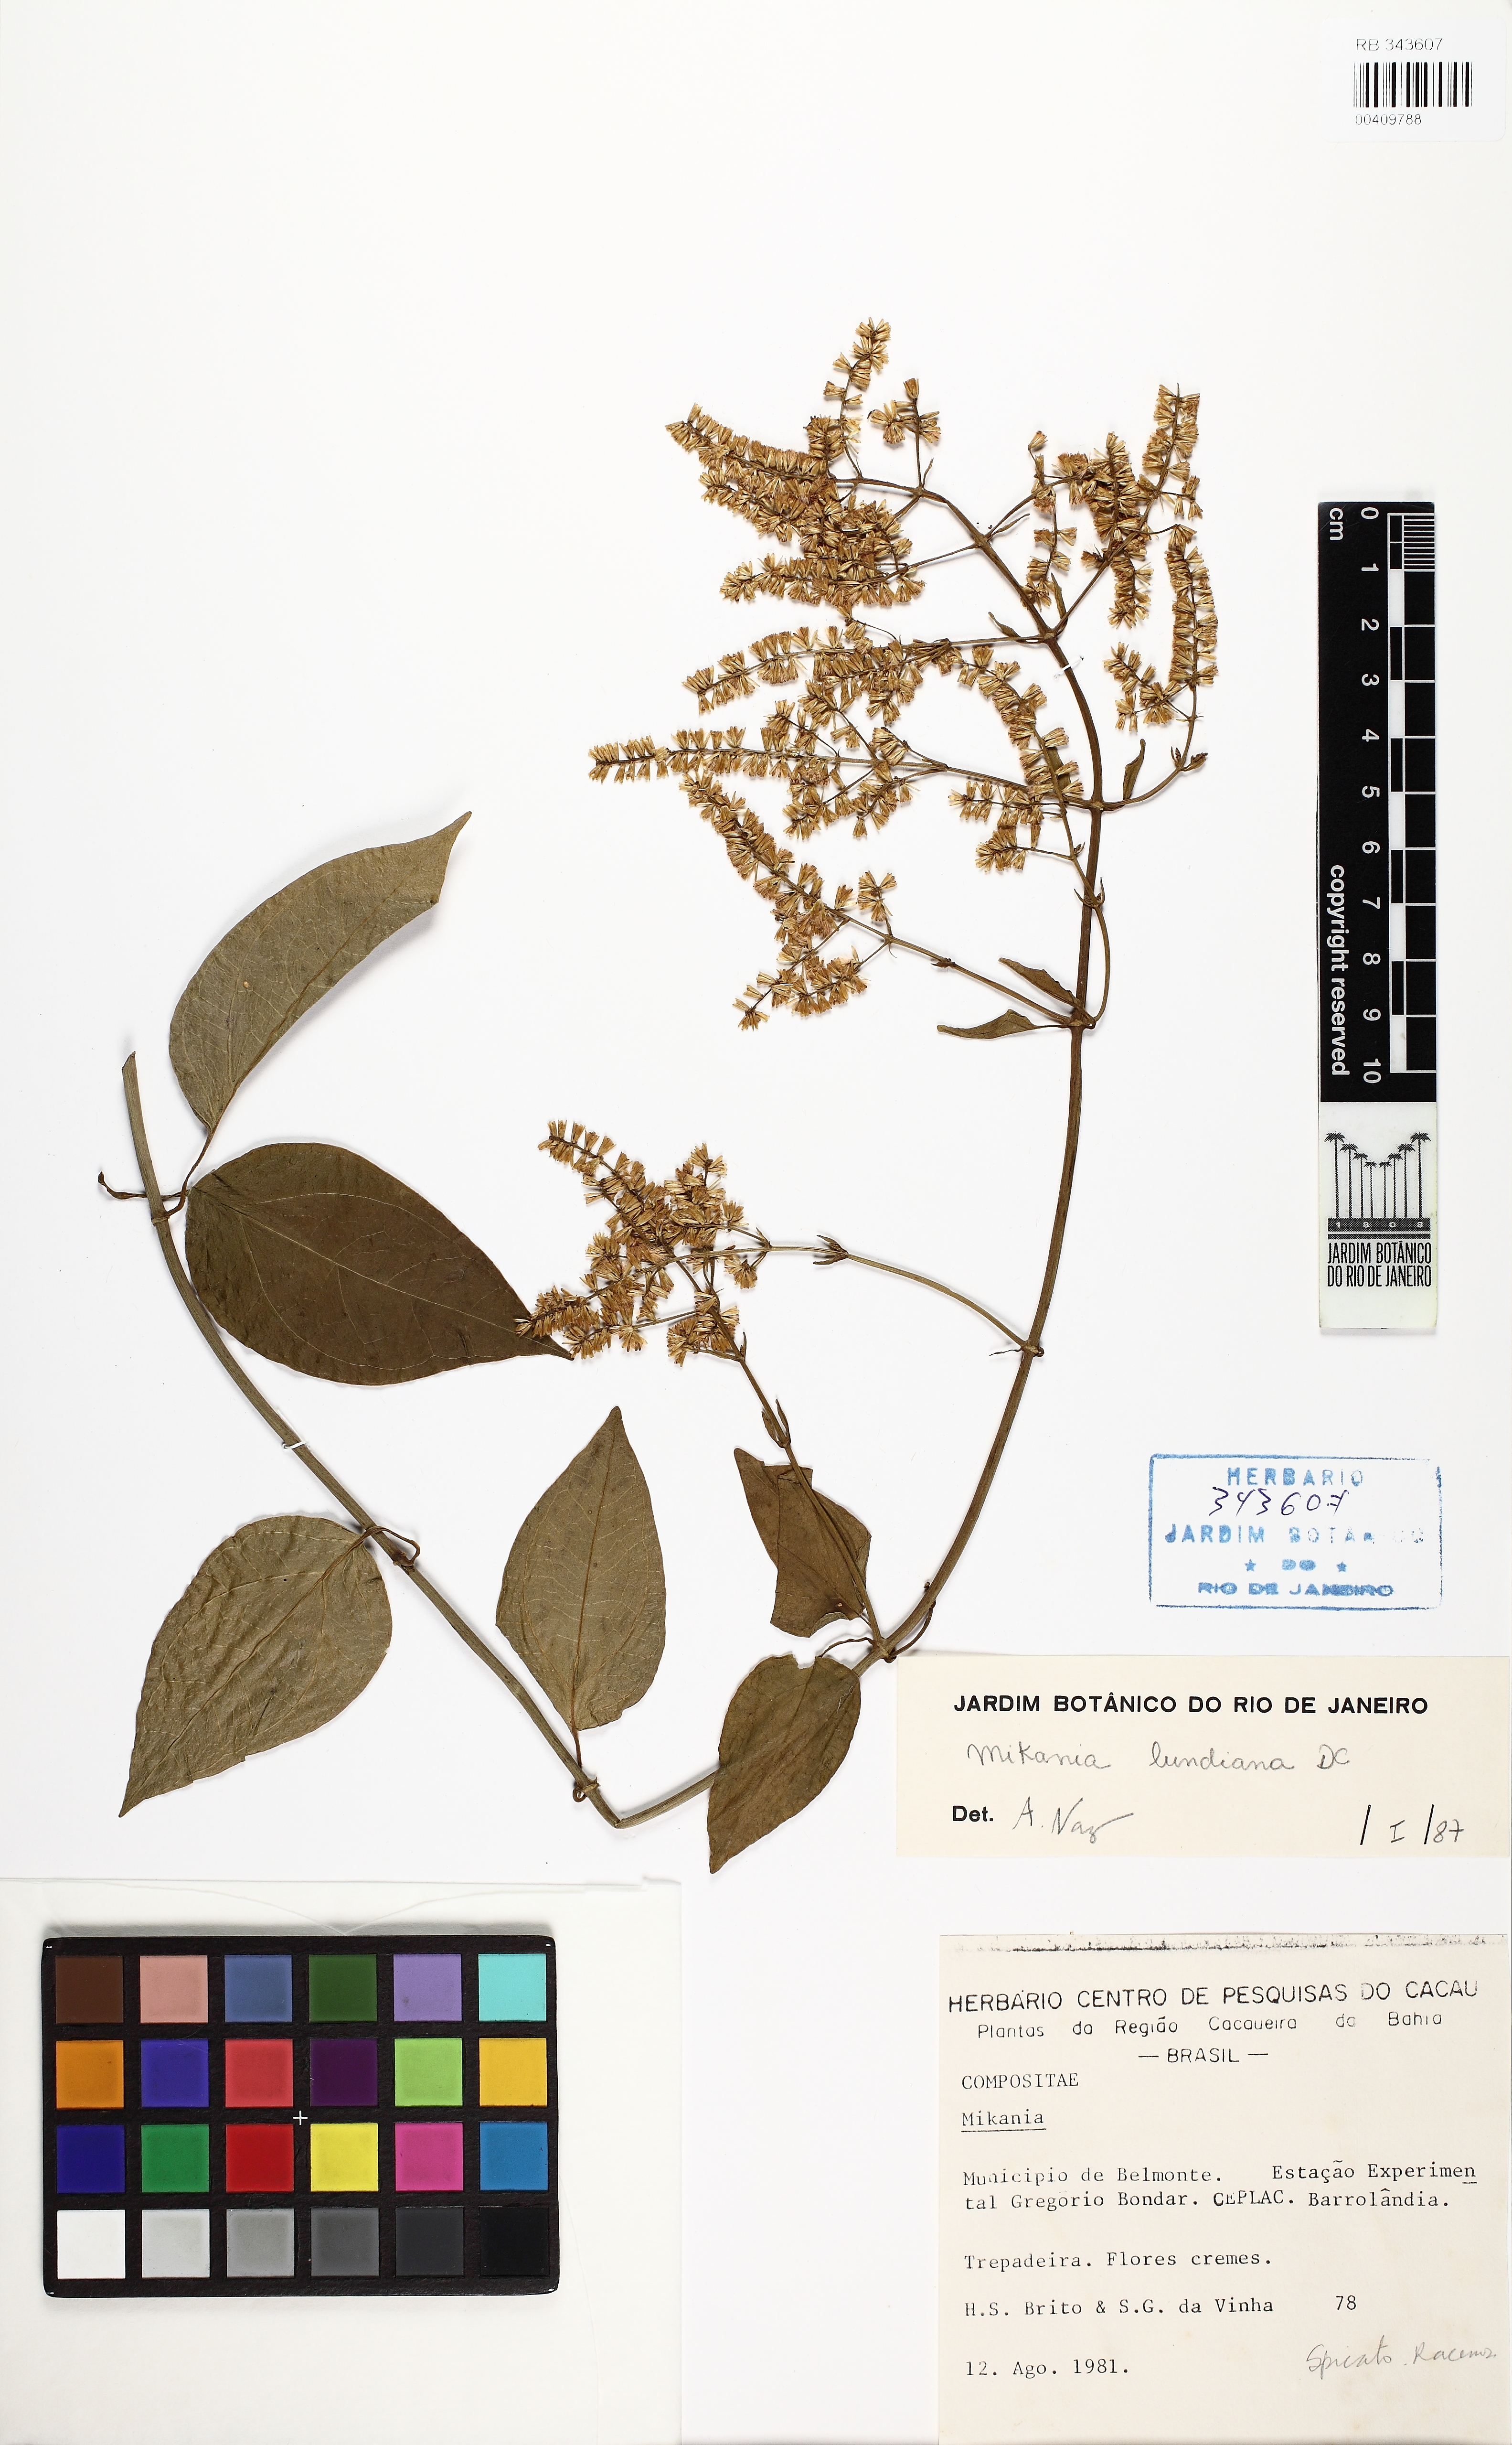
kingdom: Plantae
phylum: Tracheophyta
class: Magnoliopsida
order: Asterales
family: Asteraceae
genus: Mikania
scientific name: Mikania lundiana
